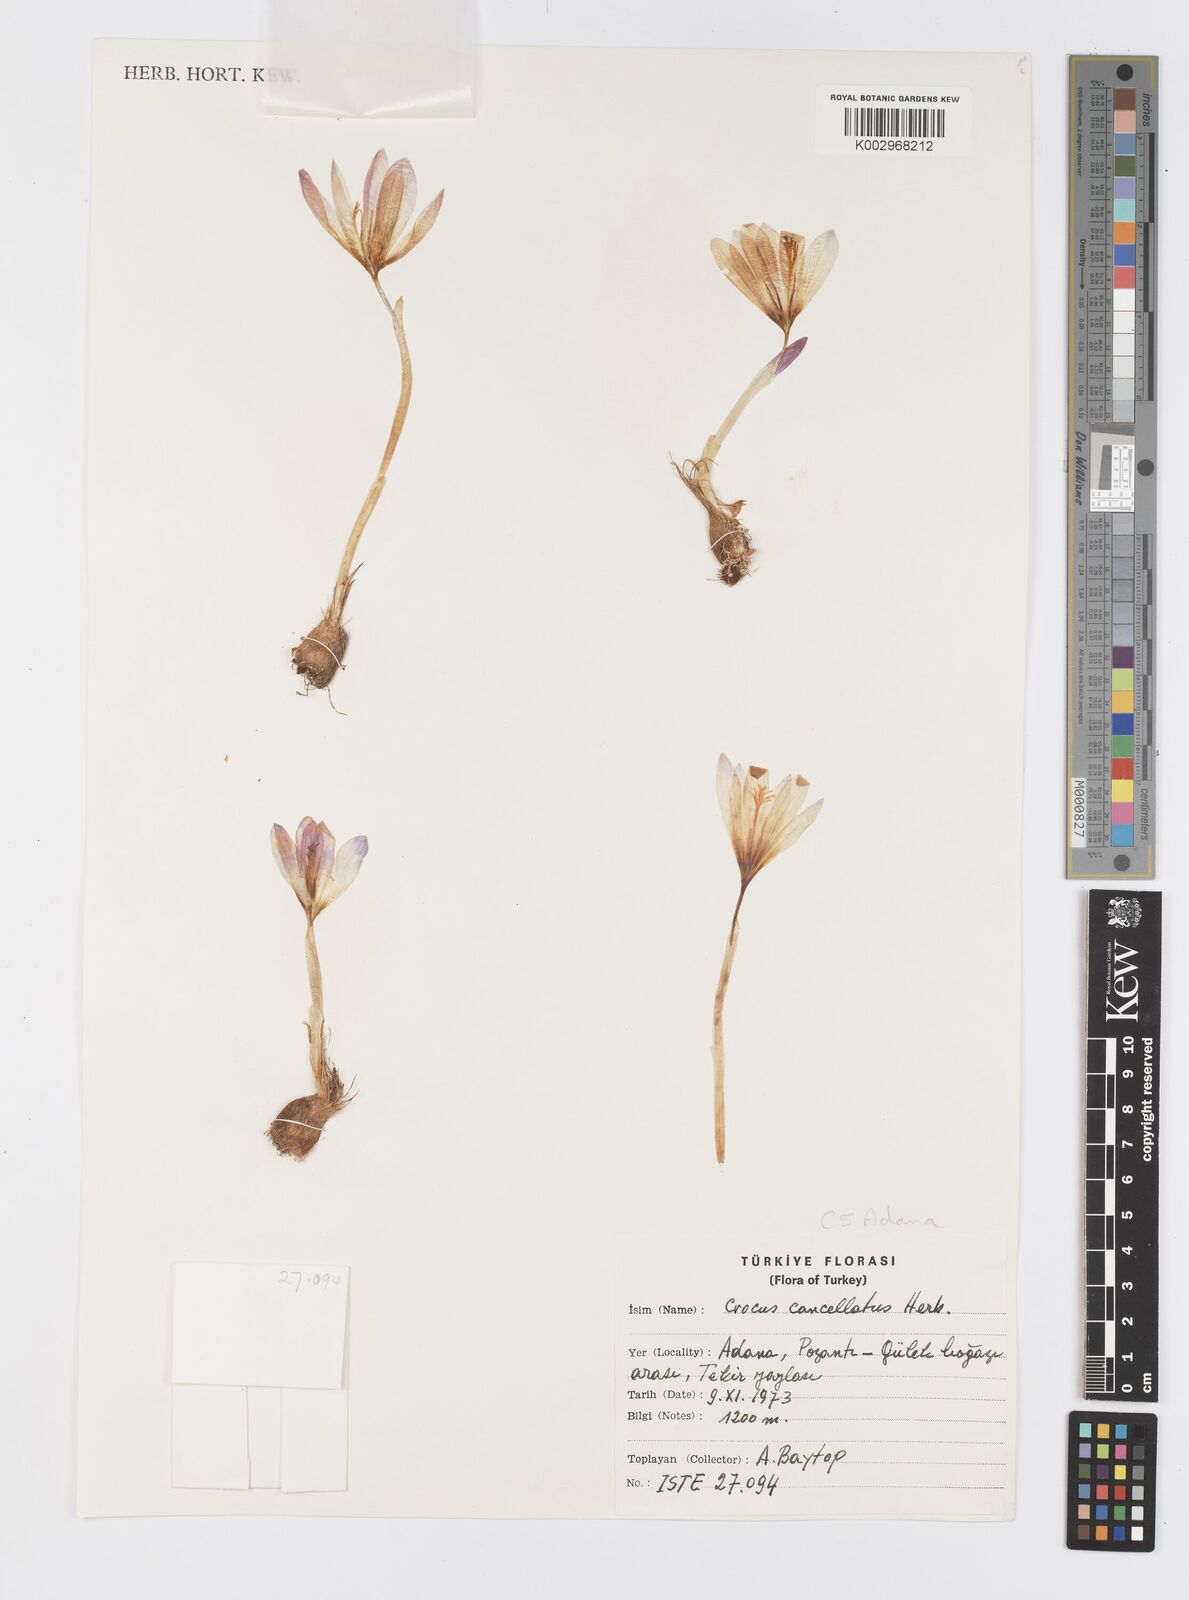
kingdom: Plantae
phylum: Tracheophyta
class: Liliopsida
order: Asparagales
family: Iridaceae
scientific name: Iridaceae
